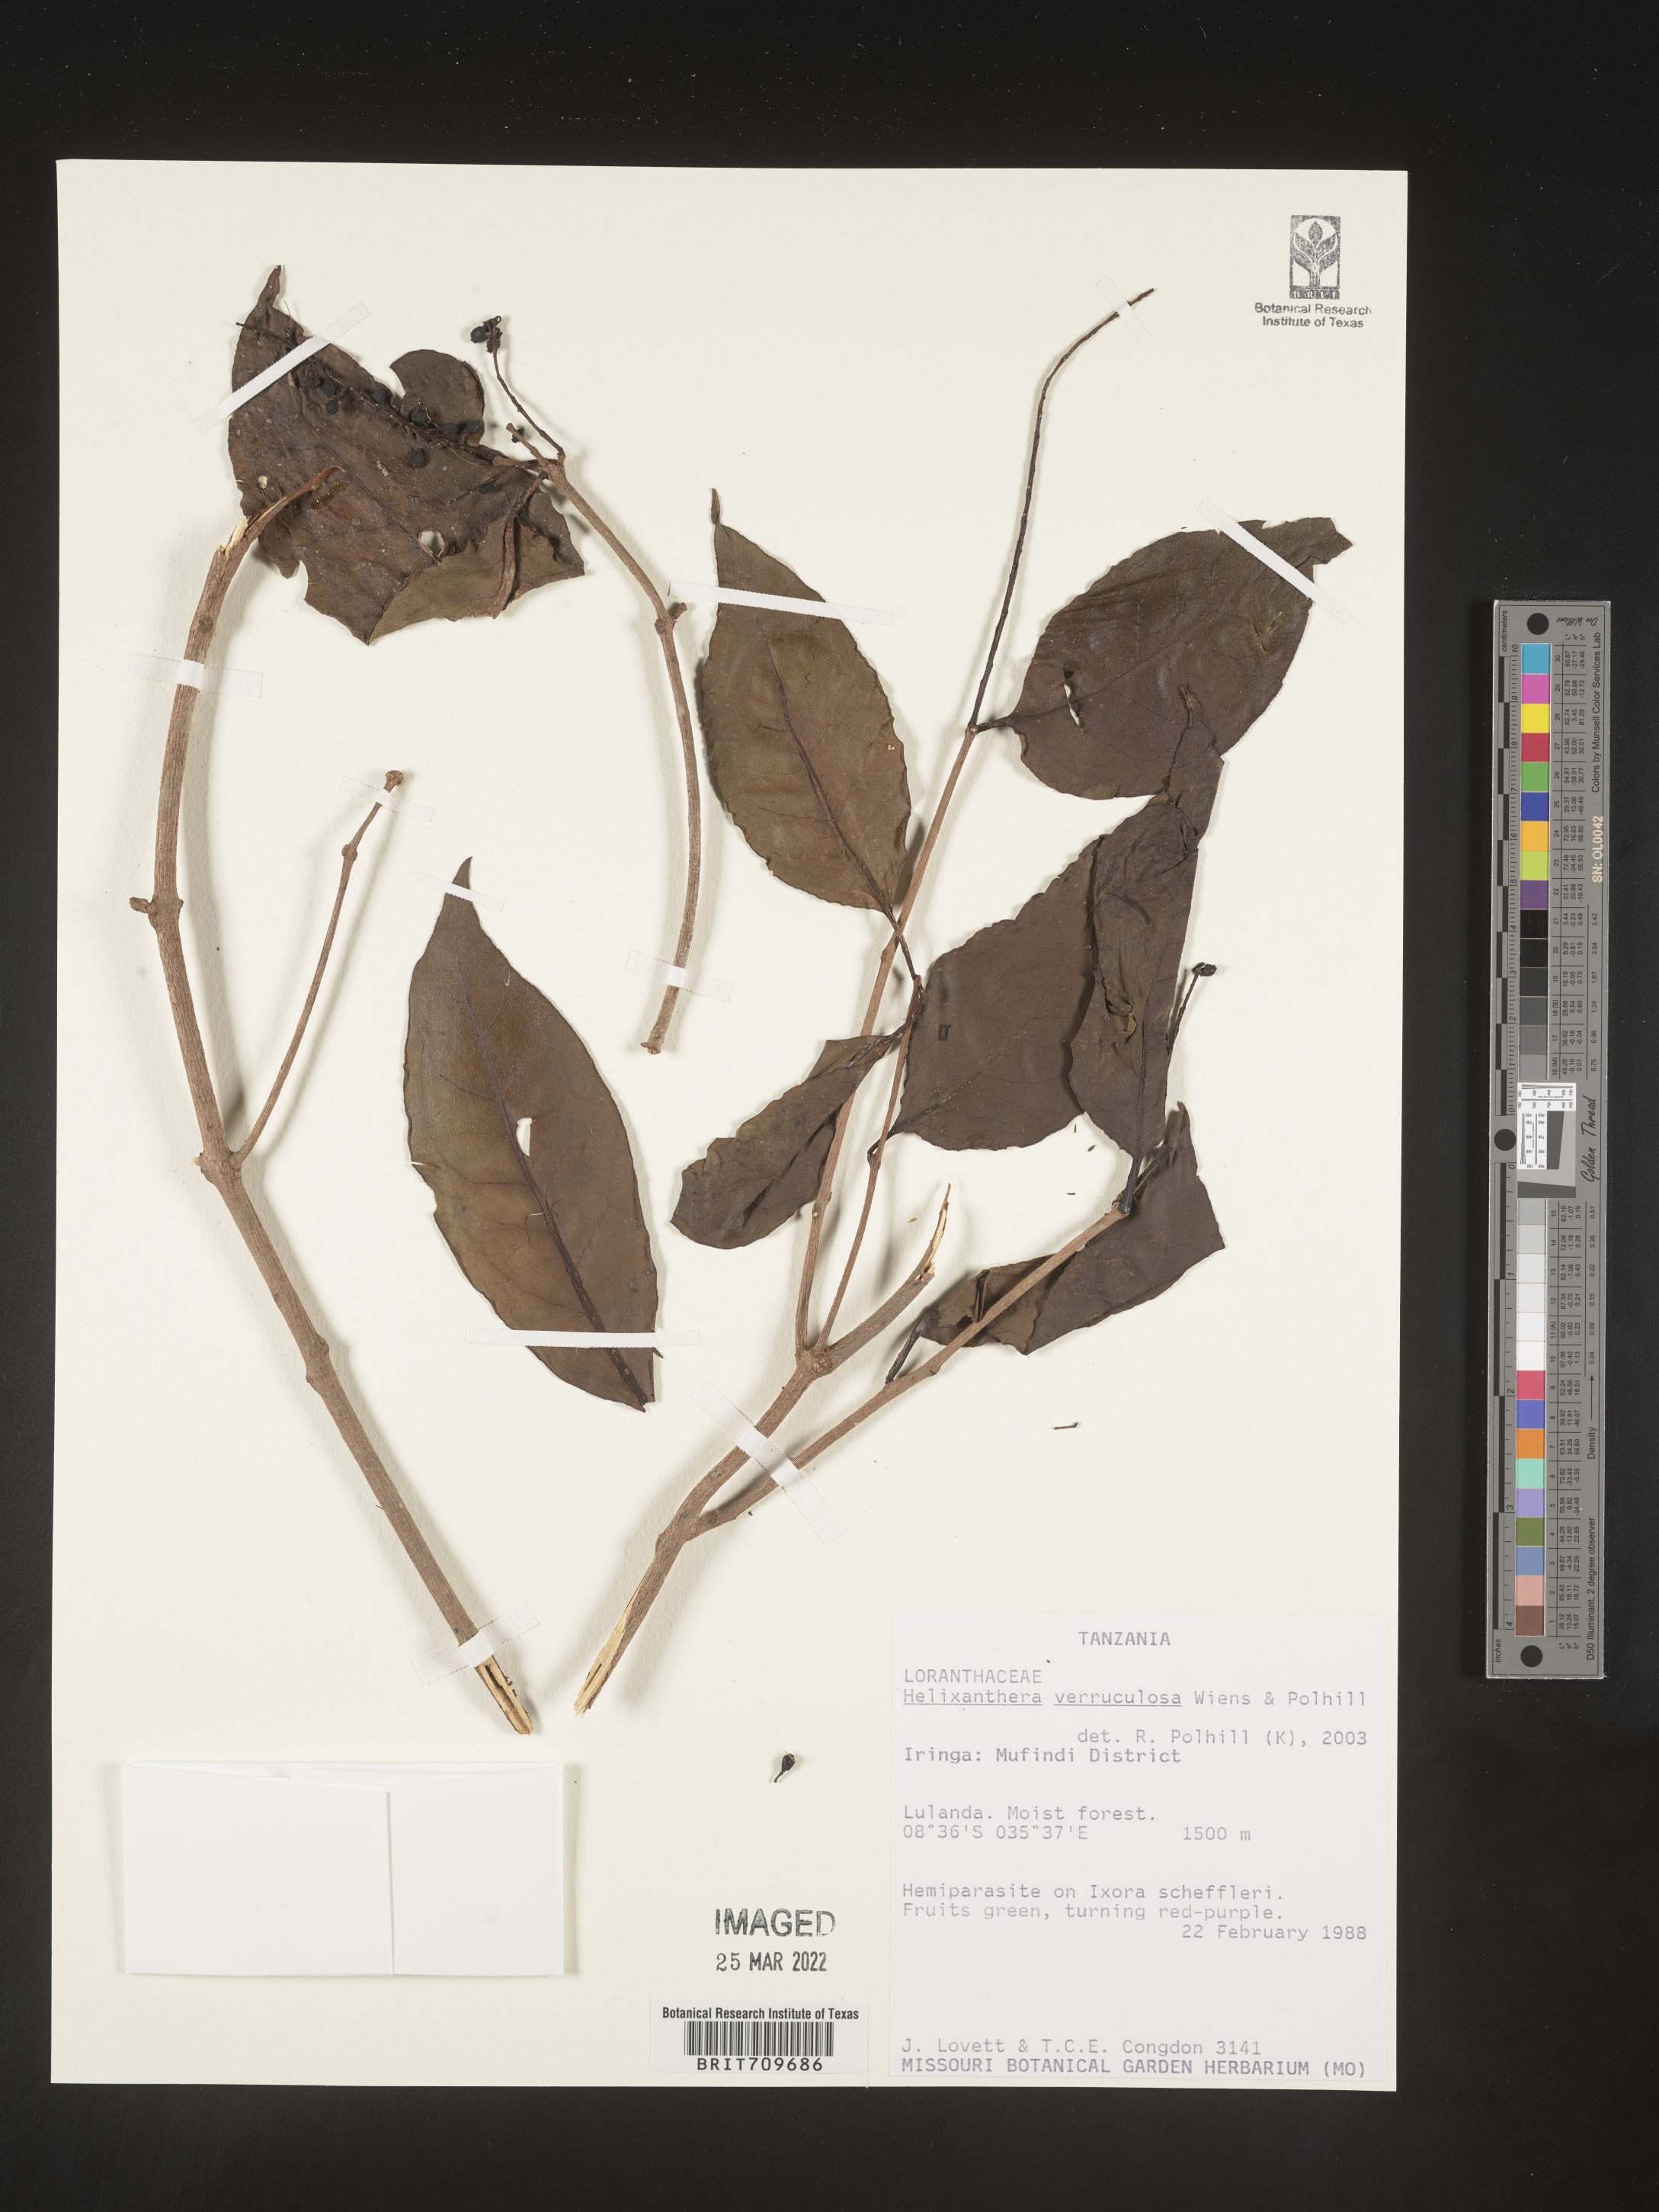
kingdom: Plantae
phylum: Tracheophyta
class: Magnoliopsida
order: Santalales
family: Loranthaceae
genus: Helixanthera
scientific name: Helixanthera
